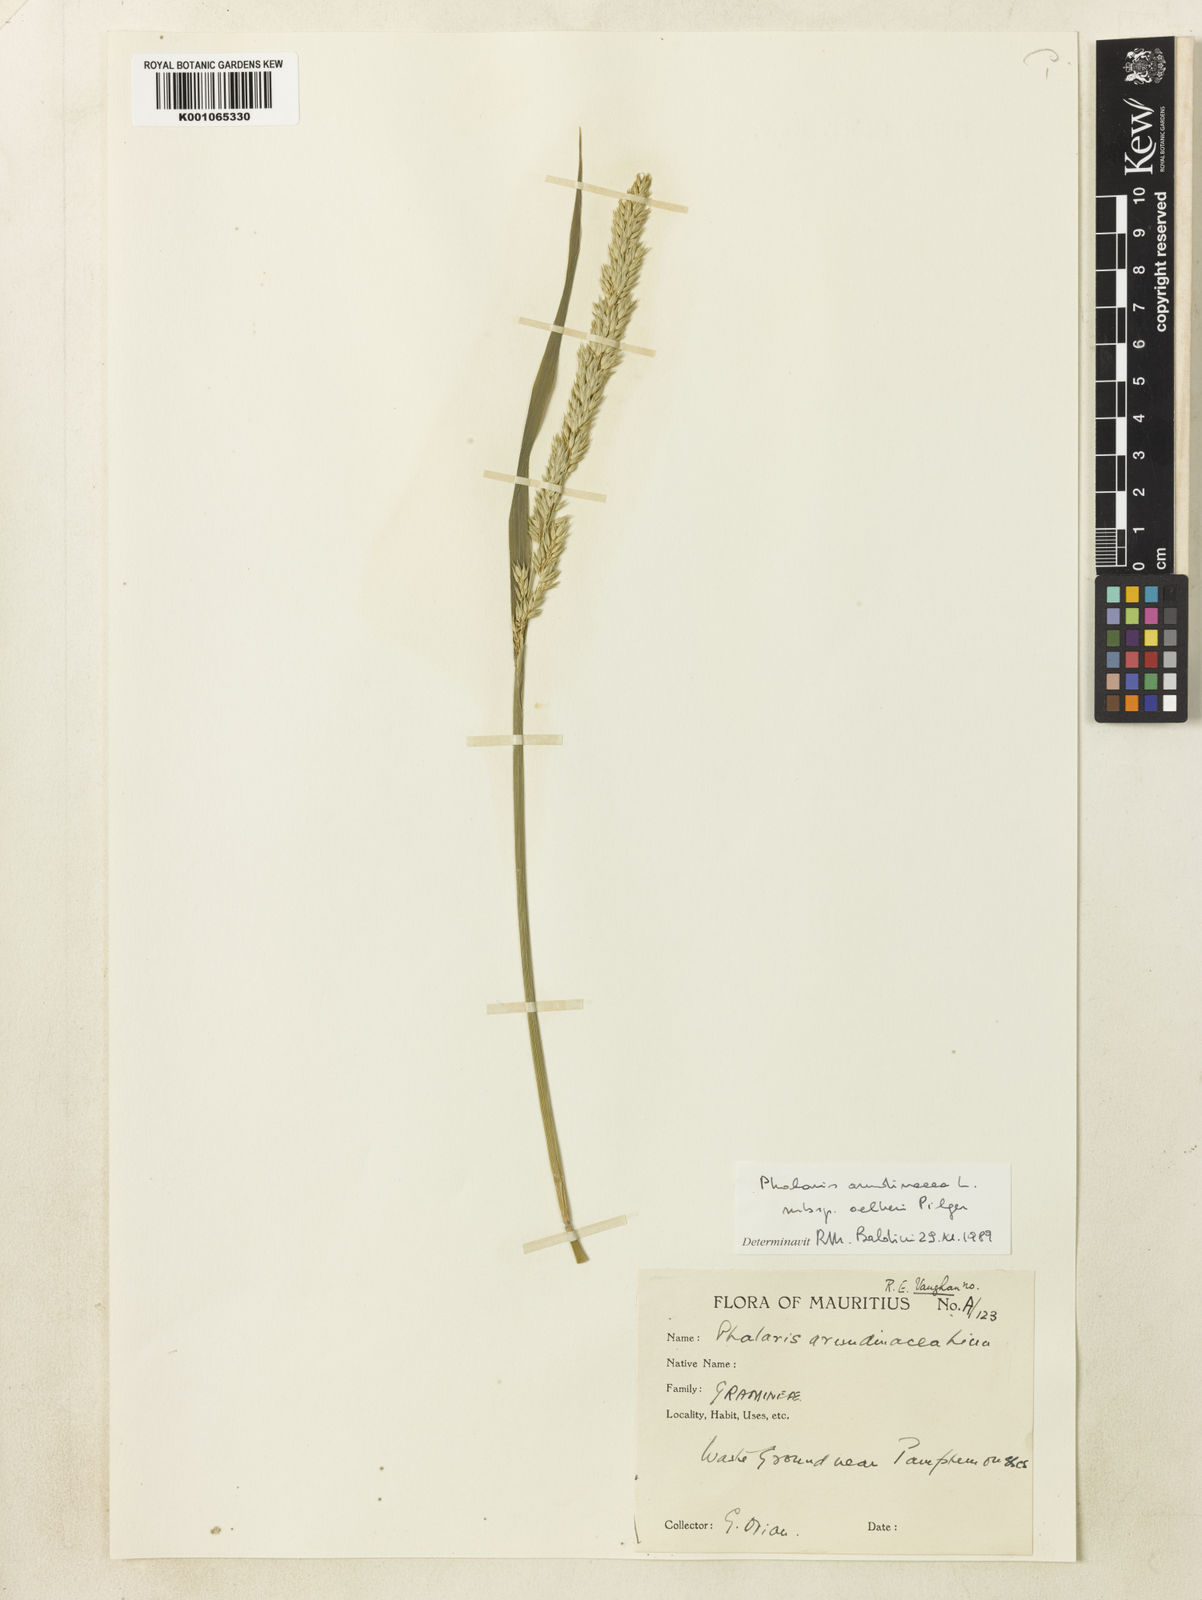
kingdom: Plantae
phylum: Tracheophyta
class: Liliopsida
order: Poales
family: Poaceae
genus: Phalaris
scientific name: Phalaris arundinacea
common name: Reed canary-grass
